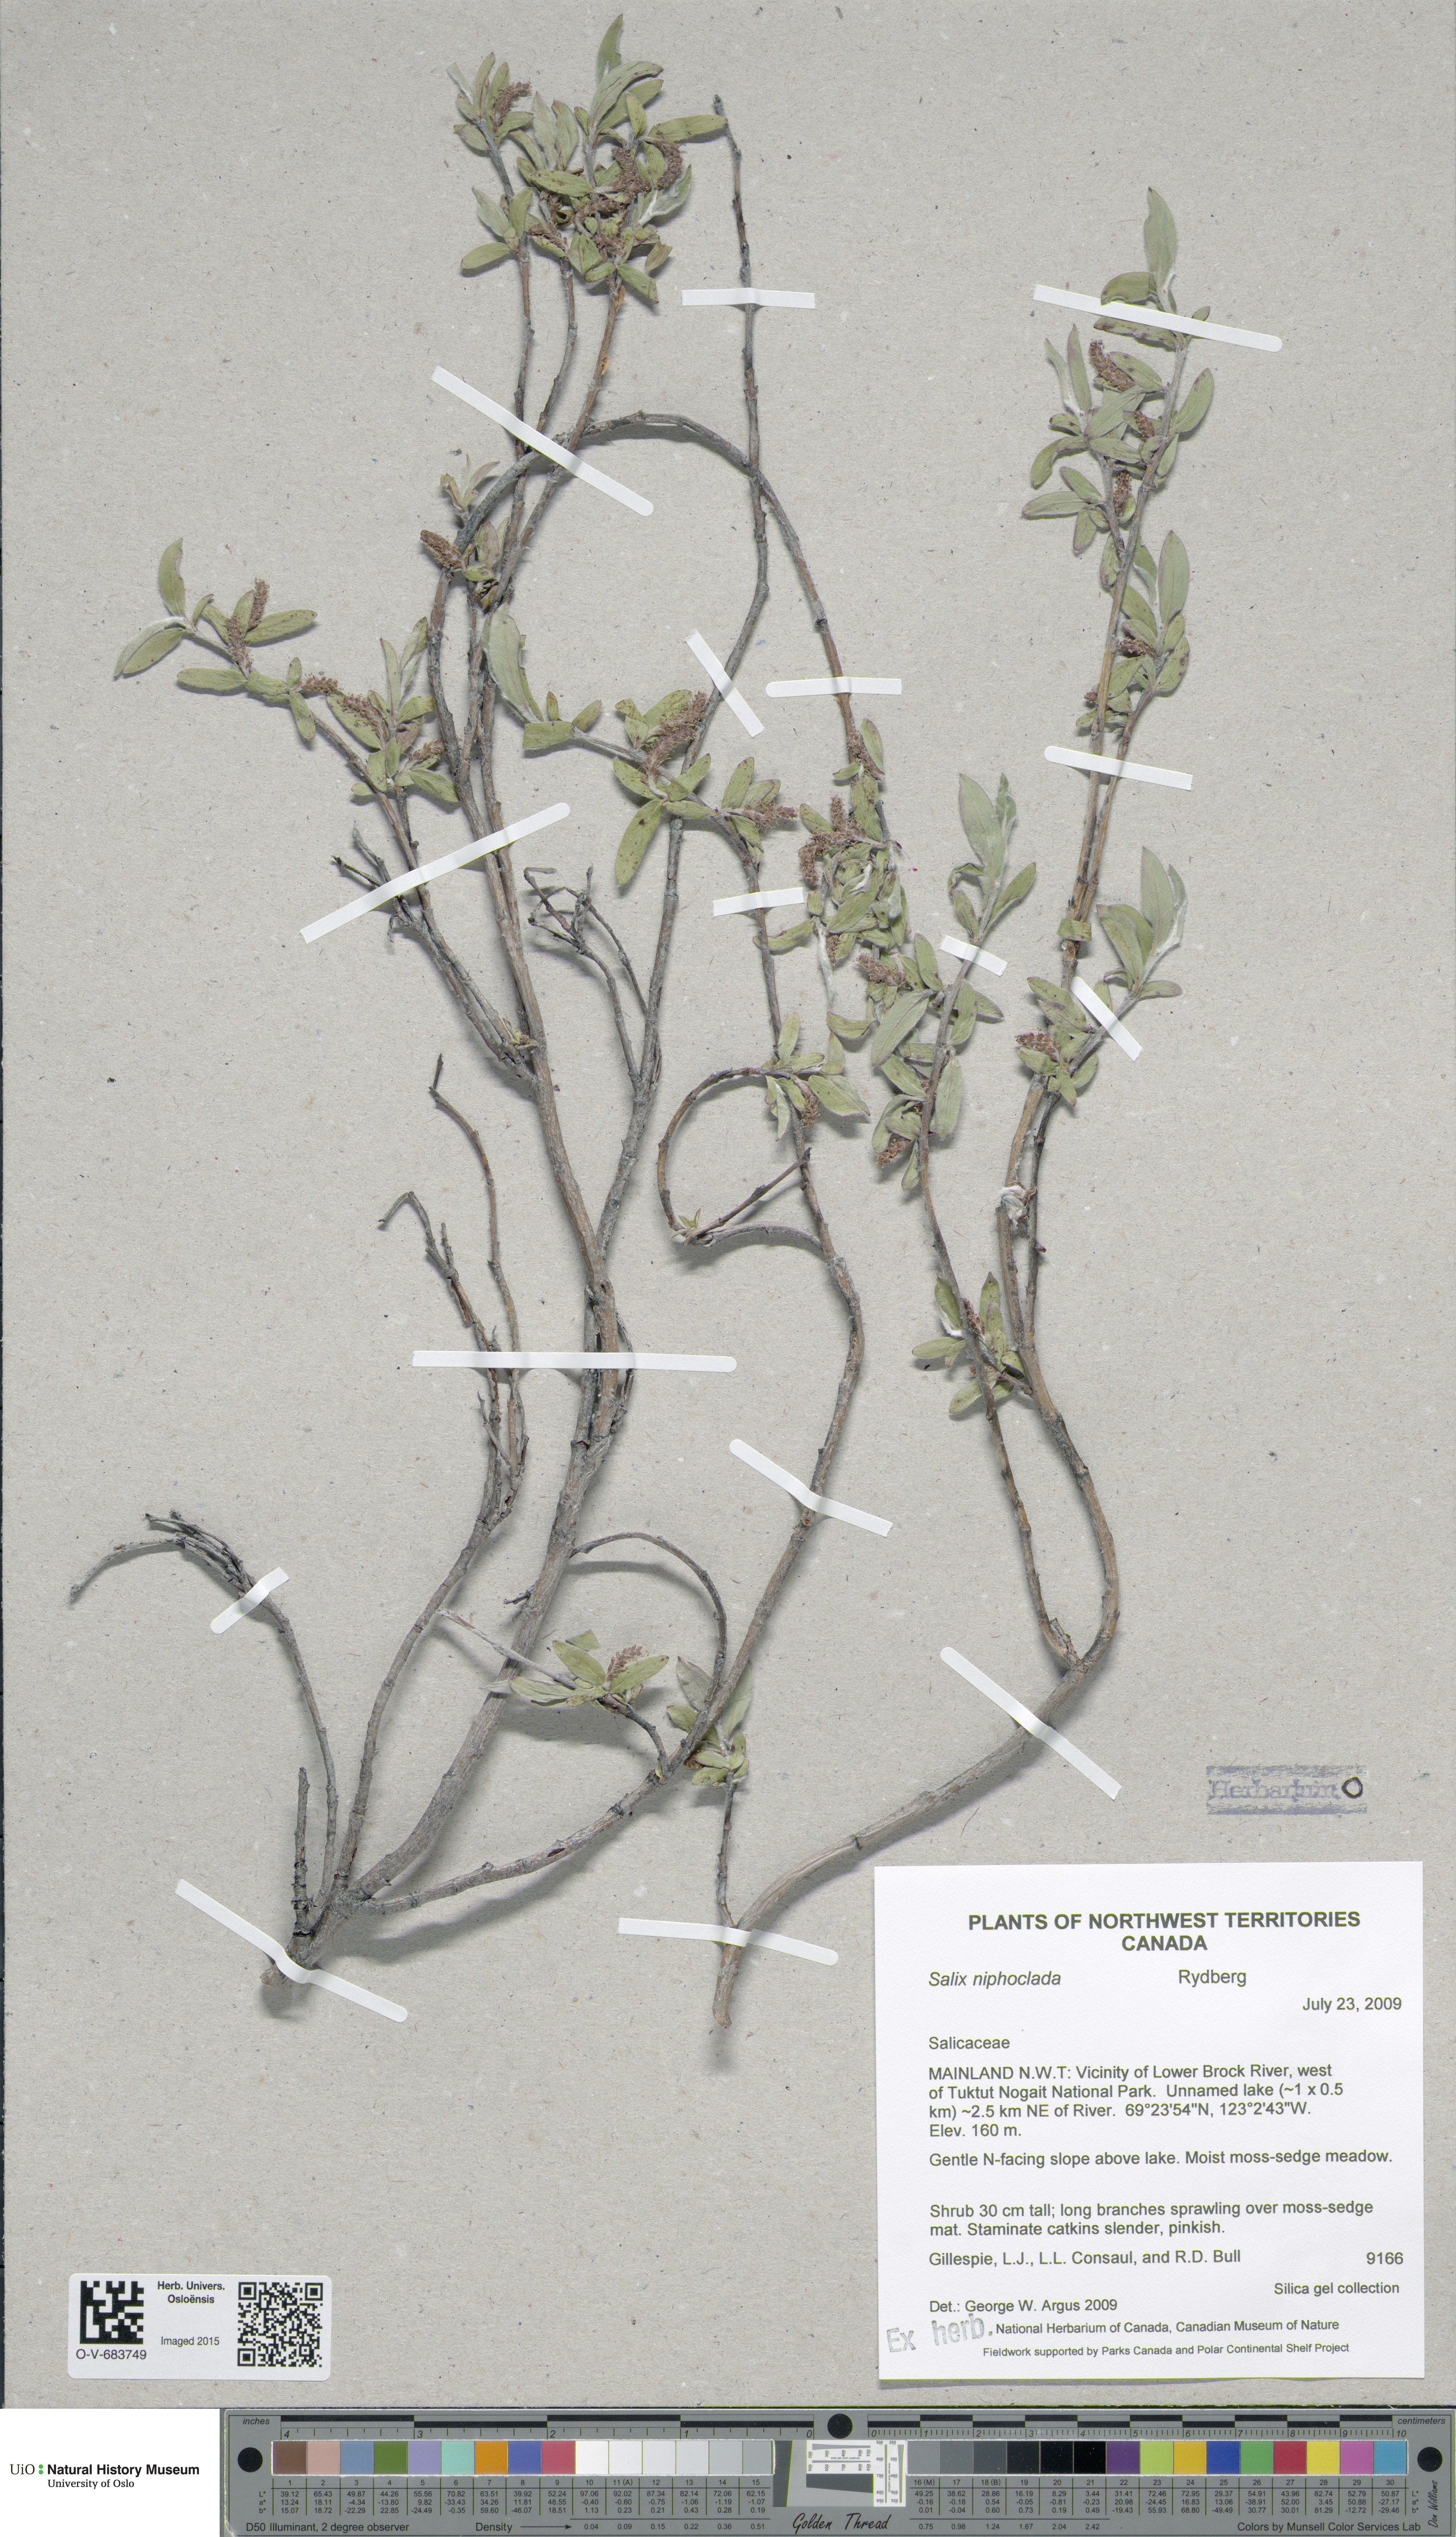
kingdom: Plantae
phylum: Tracheophyta
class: Magnoliopsida
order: Malpighiales
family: Salicaceae
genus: Salix
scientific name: Salix niphoclada
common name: Barren-ground willow
